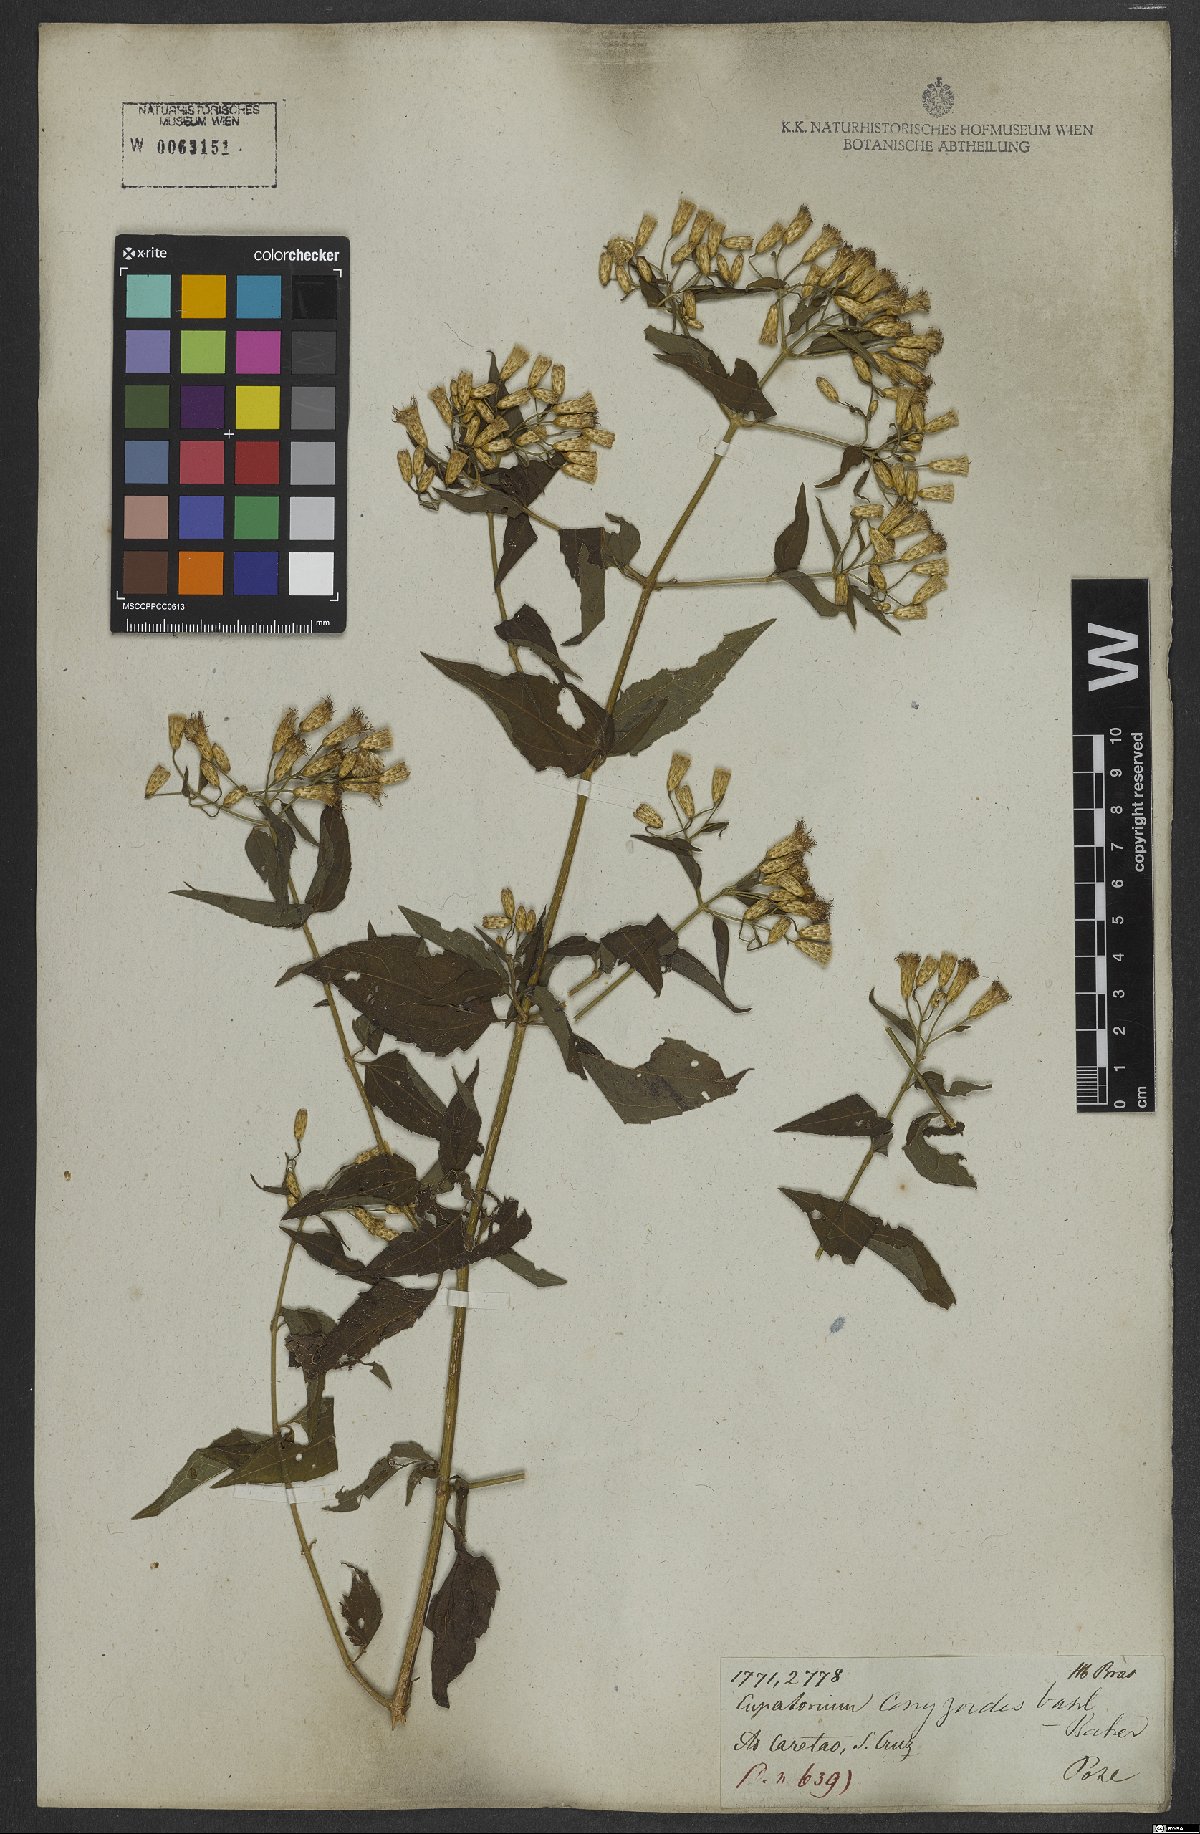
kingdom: Plantae
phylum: Tracheophyta
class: Magnoliopsida
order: Asterales
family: Asteraceae
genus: Chromolaena
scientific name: Chromolaena odorata
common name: Siamweed
